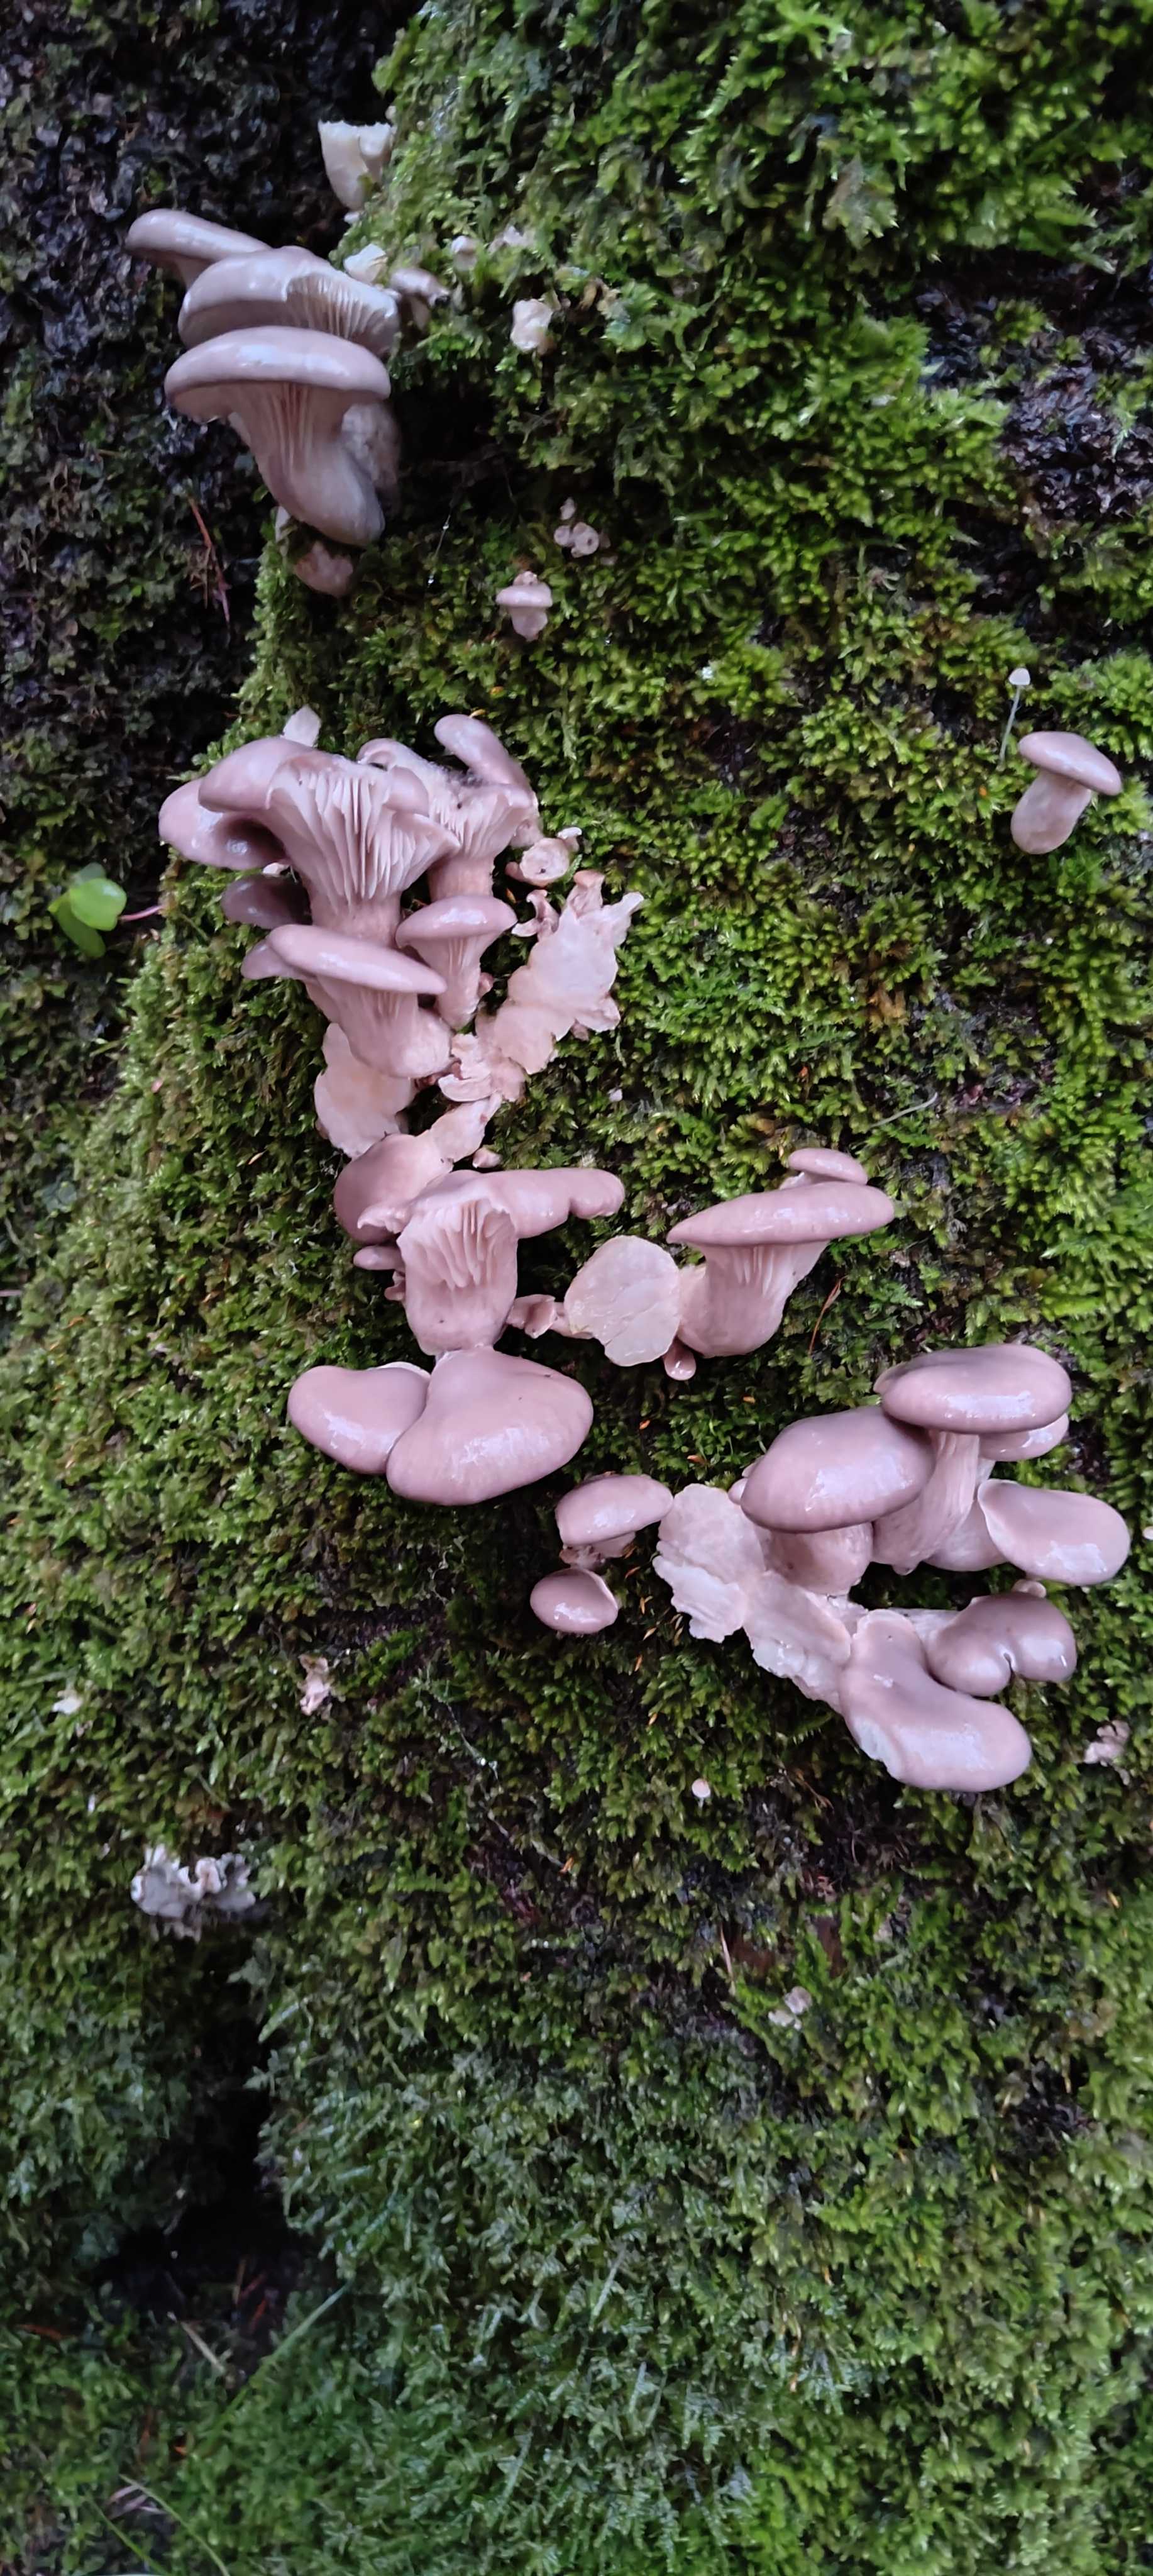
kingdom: Fungi
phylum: Basidiomycota
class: Agaricomycetes
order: Agaricales
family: Pleurotaceae
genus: Pleurotus
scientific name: Pleurotus ostreatus
